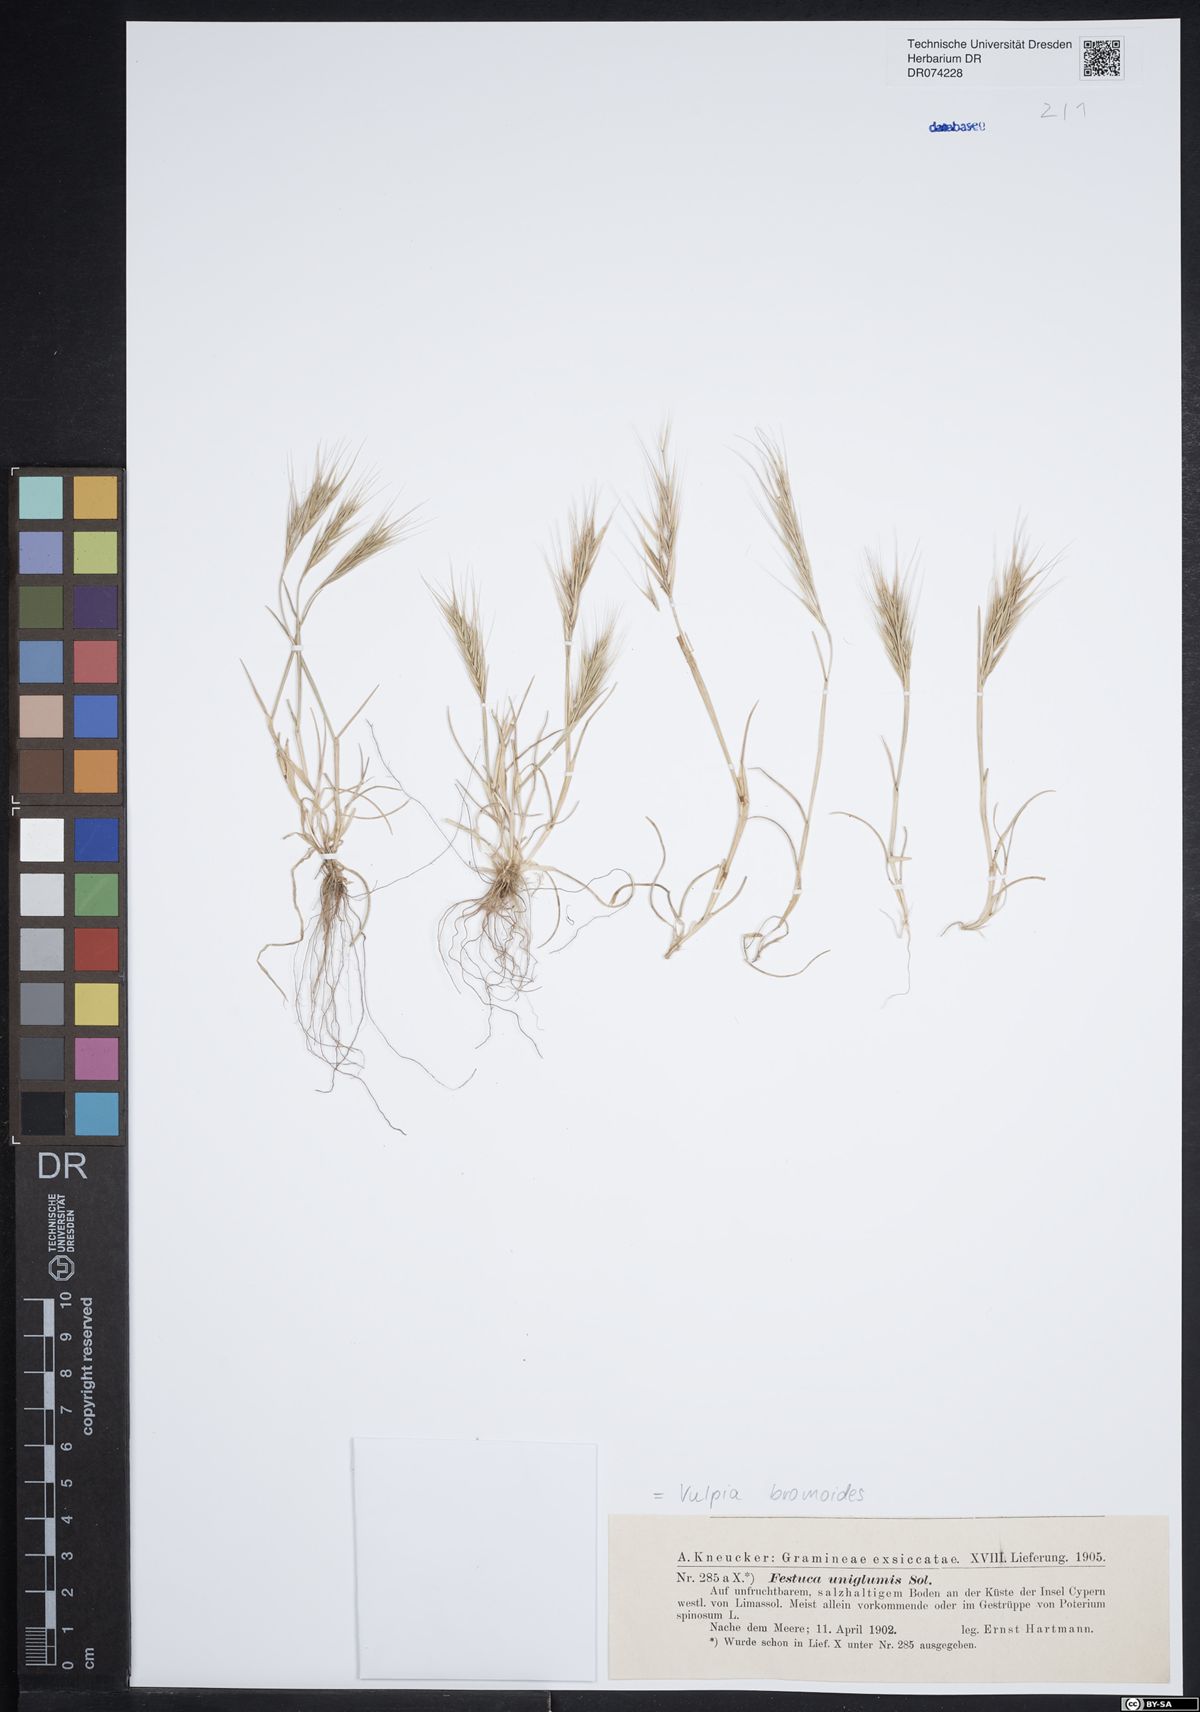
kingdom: Plantae
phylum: Tracheophyta
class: Liliopsida
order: Poales
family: Poaceae
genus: Festuca
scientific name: Festuca bromoides
